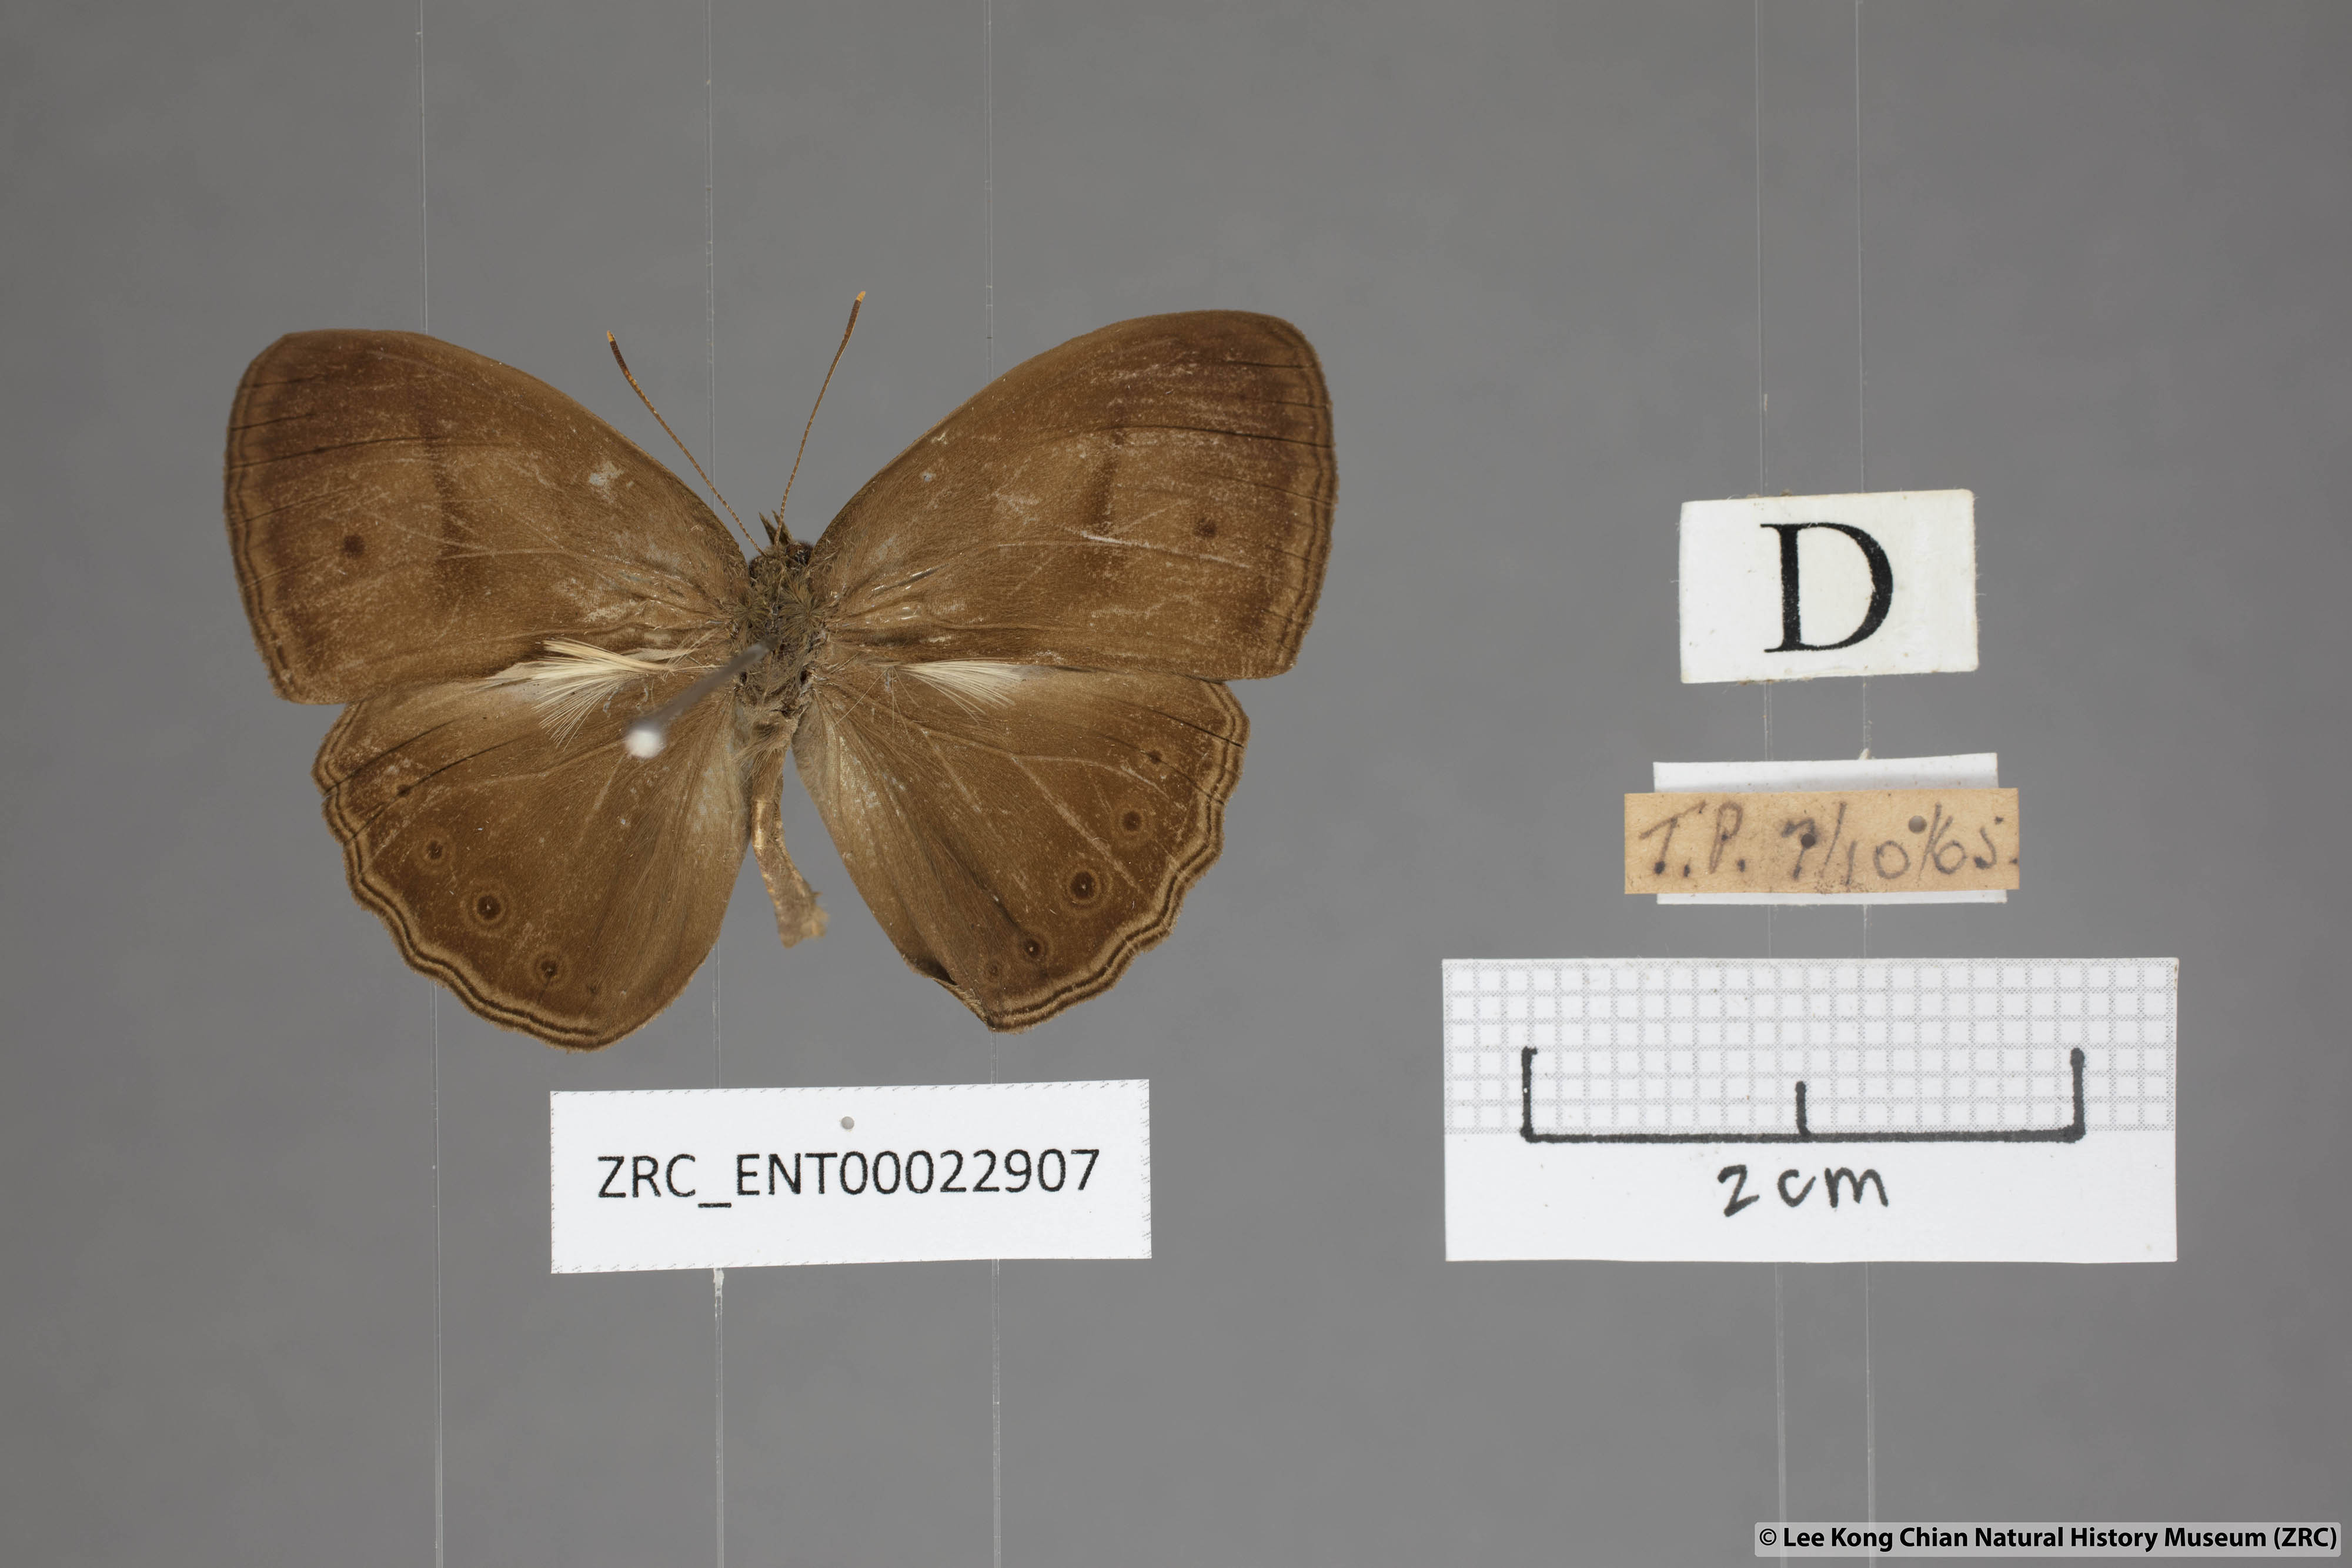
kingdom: Animalia
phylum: Arthropoda
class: Insecta
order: Lepidoptera
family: Nymphalidae
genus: Mycalesis
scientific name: Mycalesis fuscum
